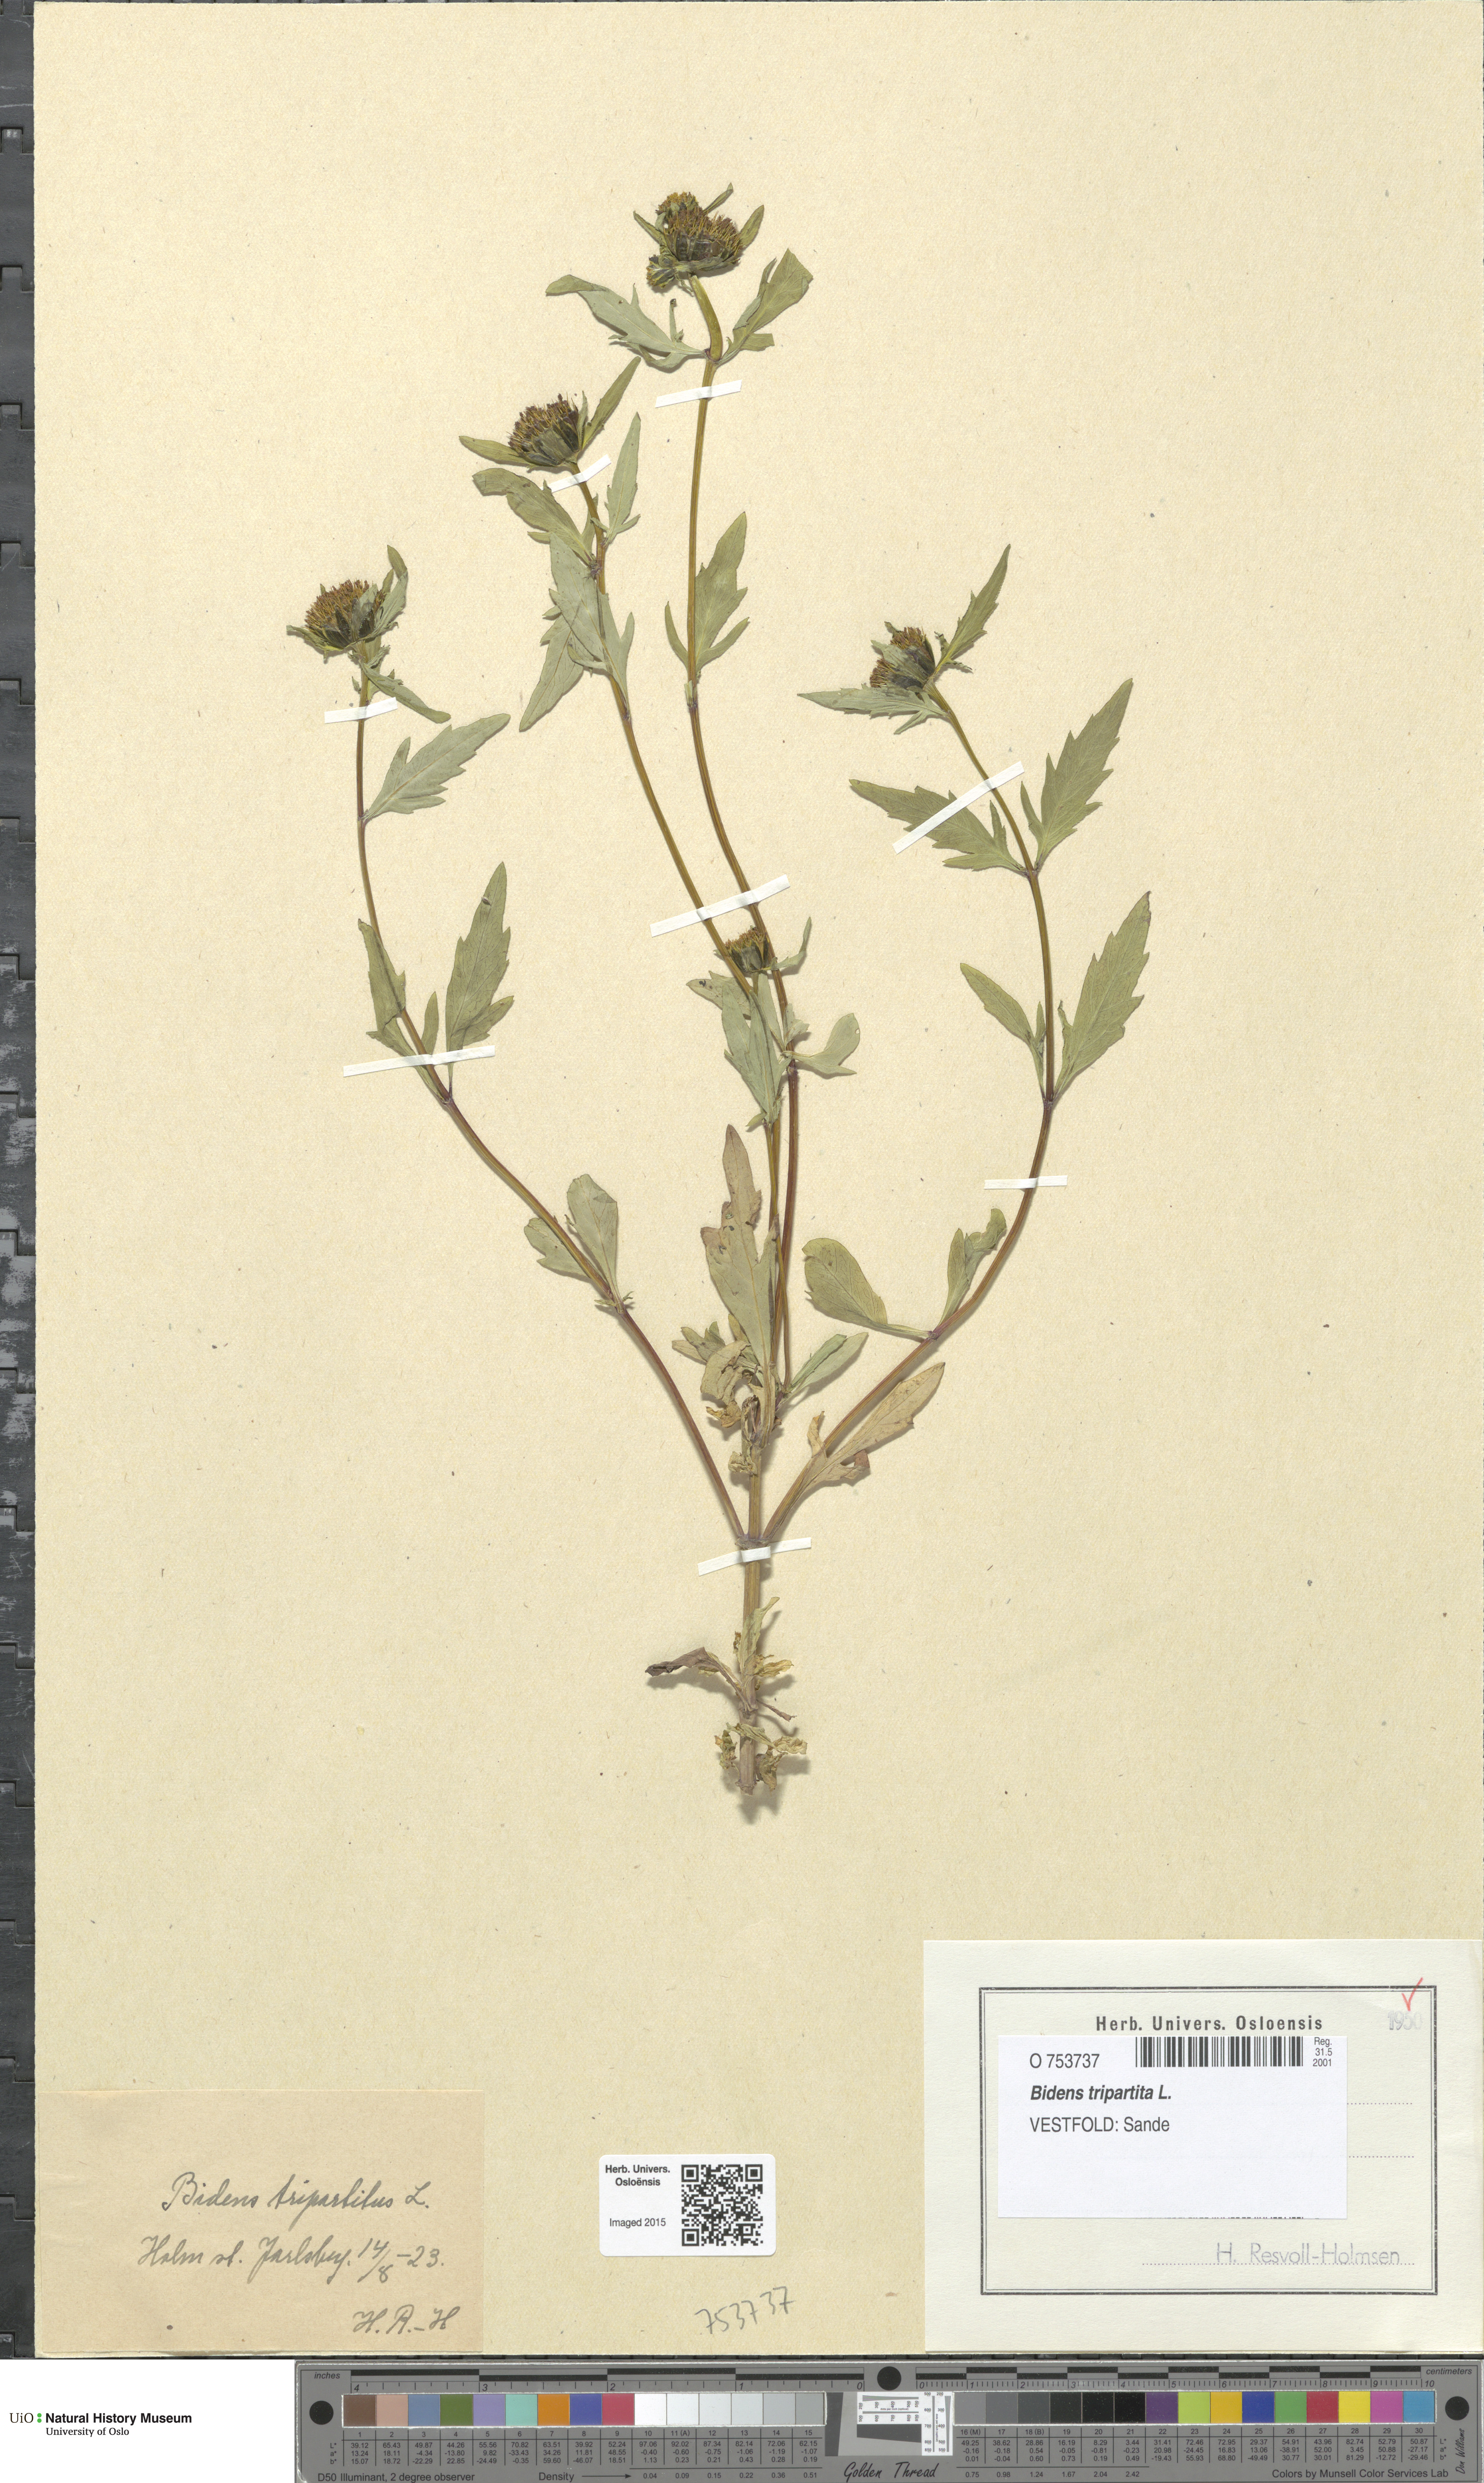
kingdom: Plantae
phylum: Tracheophyta
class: Magnoliopsida
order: Asterales
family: Asteraceae
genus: Bidens
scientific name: Bidens tripartita
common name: Trifid bur-marigold
